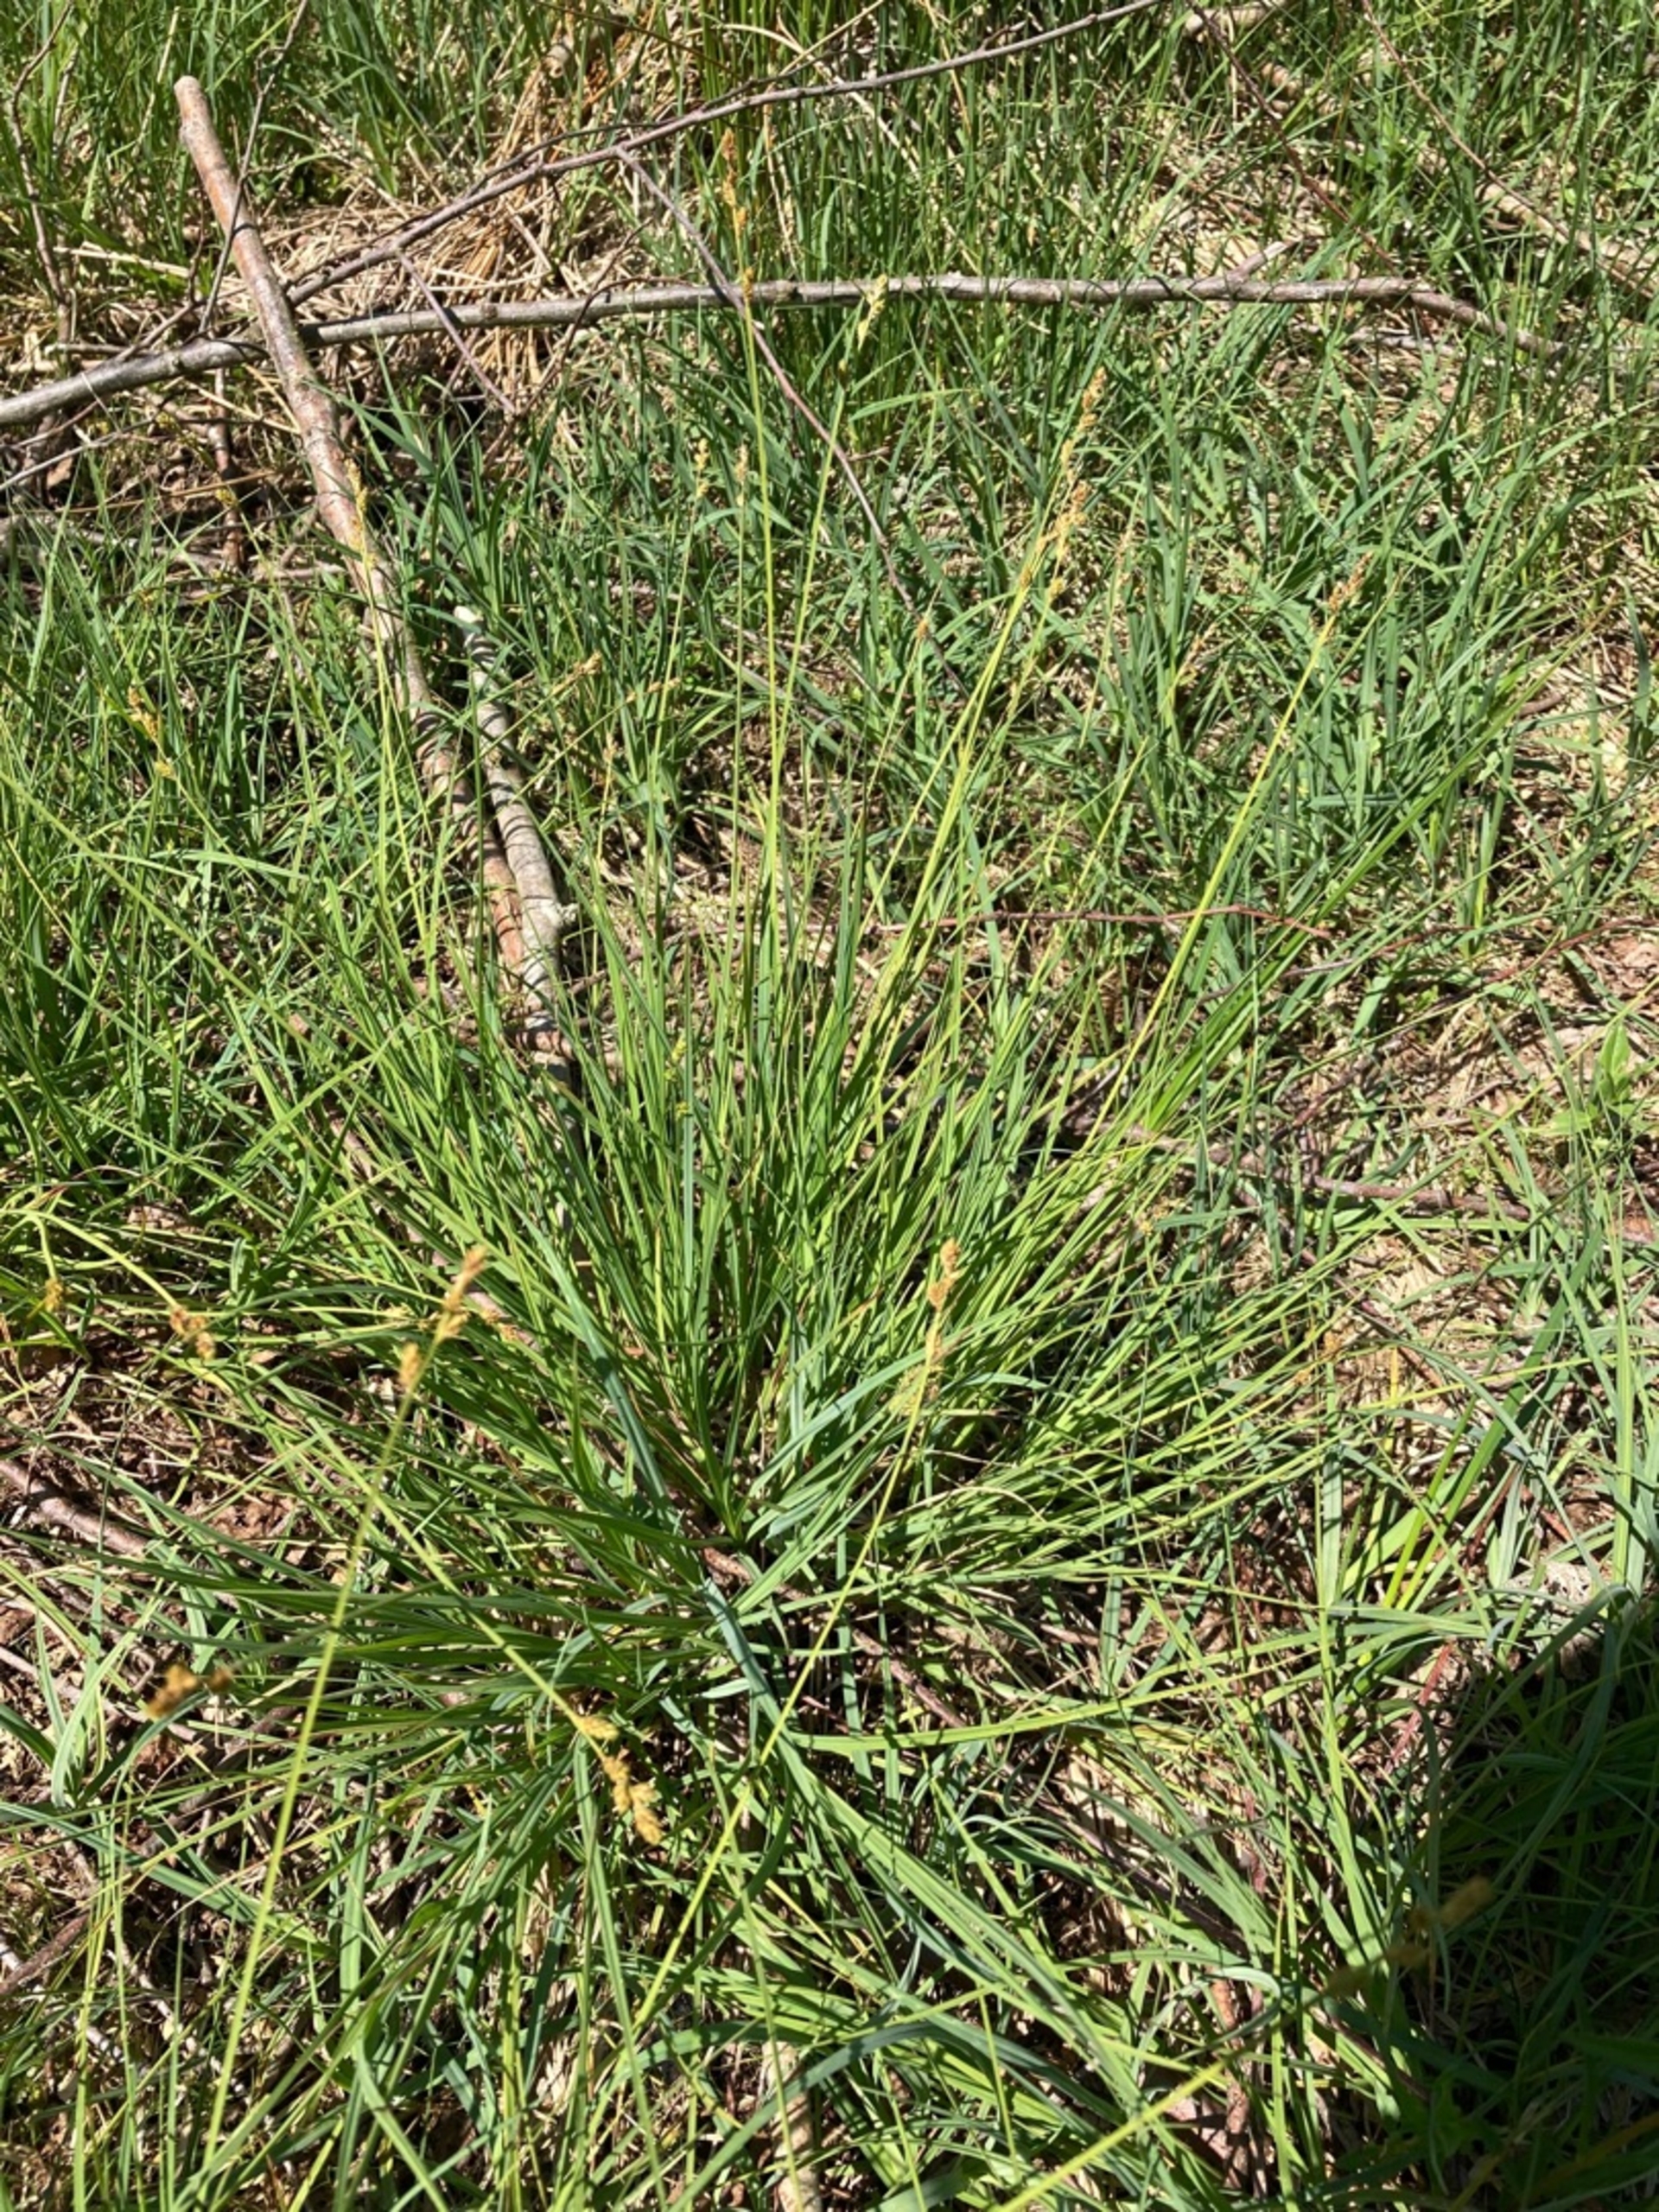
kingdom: Plantae
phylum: Tracheophyta
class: Liliopsida
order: Poales
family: Cyperaceae
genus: Carex
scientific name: Carex canescens
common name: Grå star
